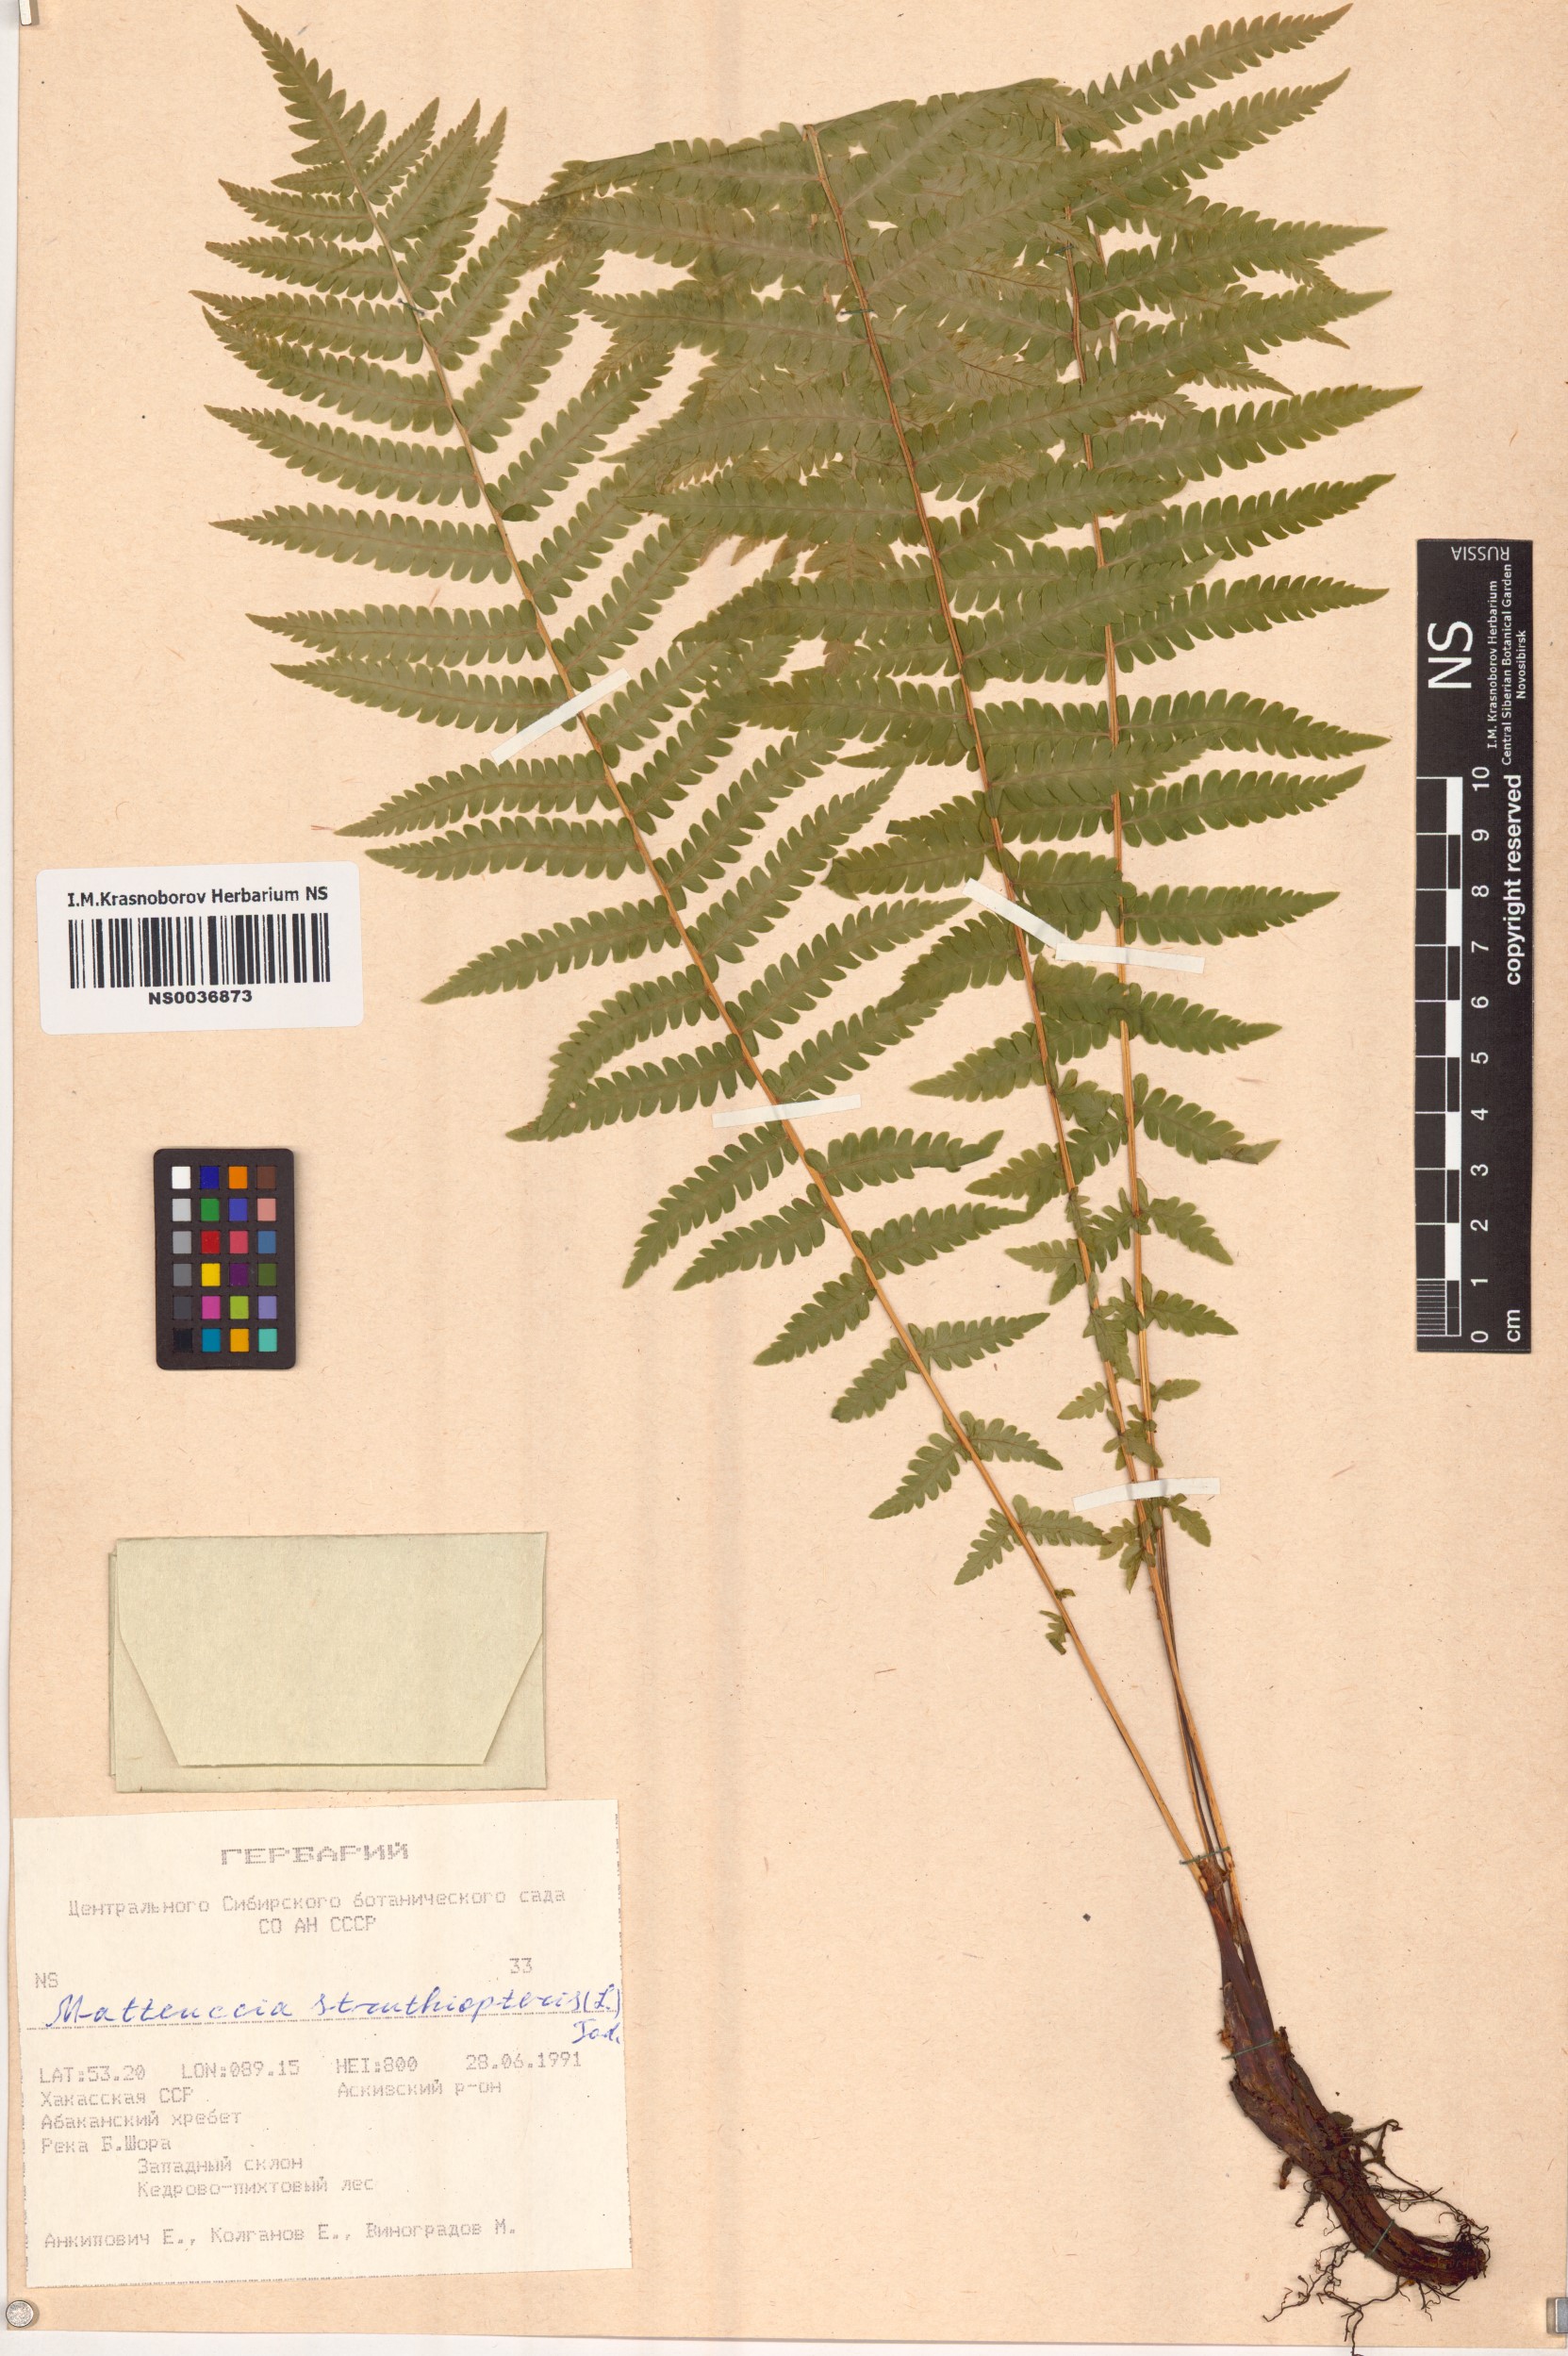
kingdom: Plantae
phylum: Tracheophyta
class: Polypodiopsida
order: Polypodiales
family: Onocleaceae
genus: Matteuccia
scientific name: Matteuccia struthiopteris
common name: Ostrich fern
